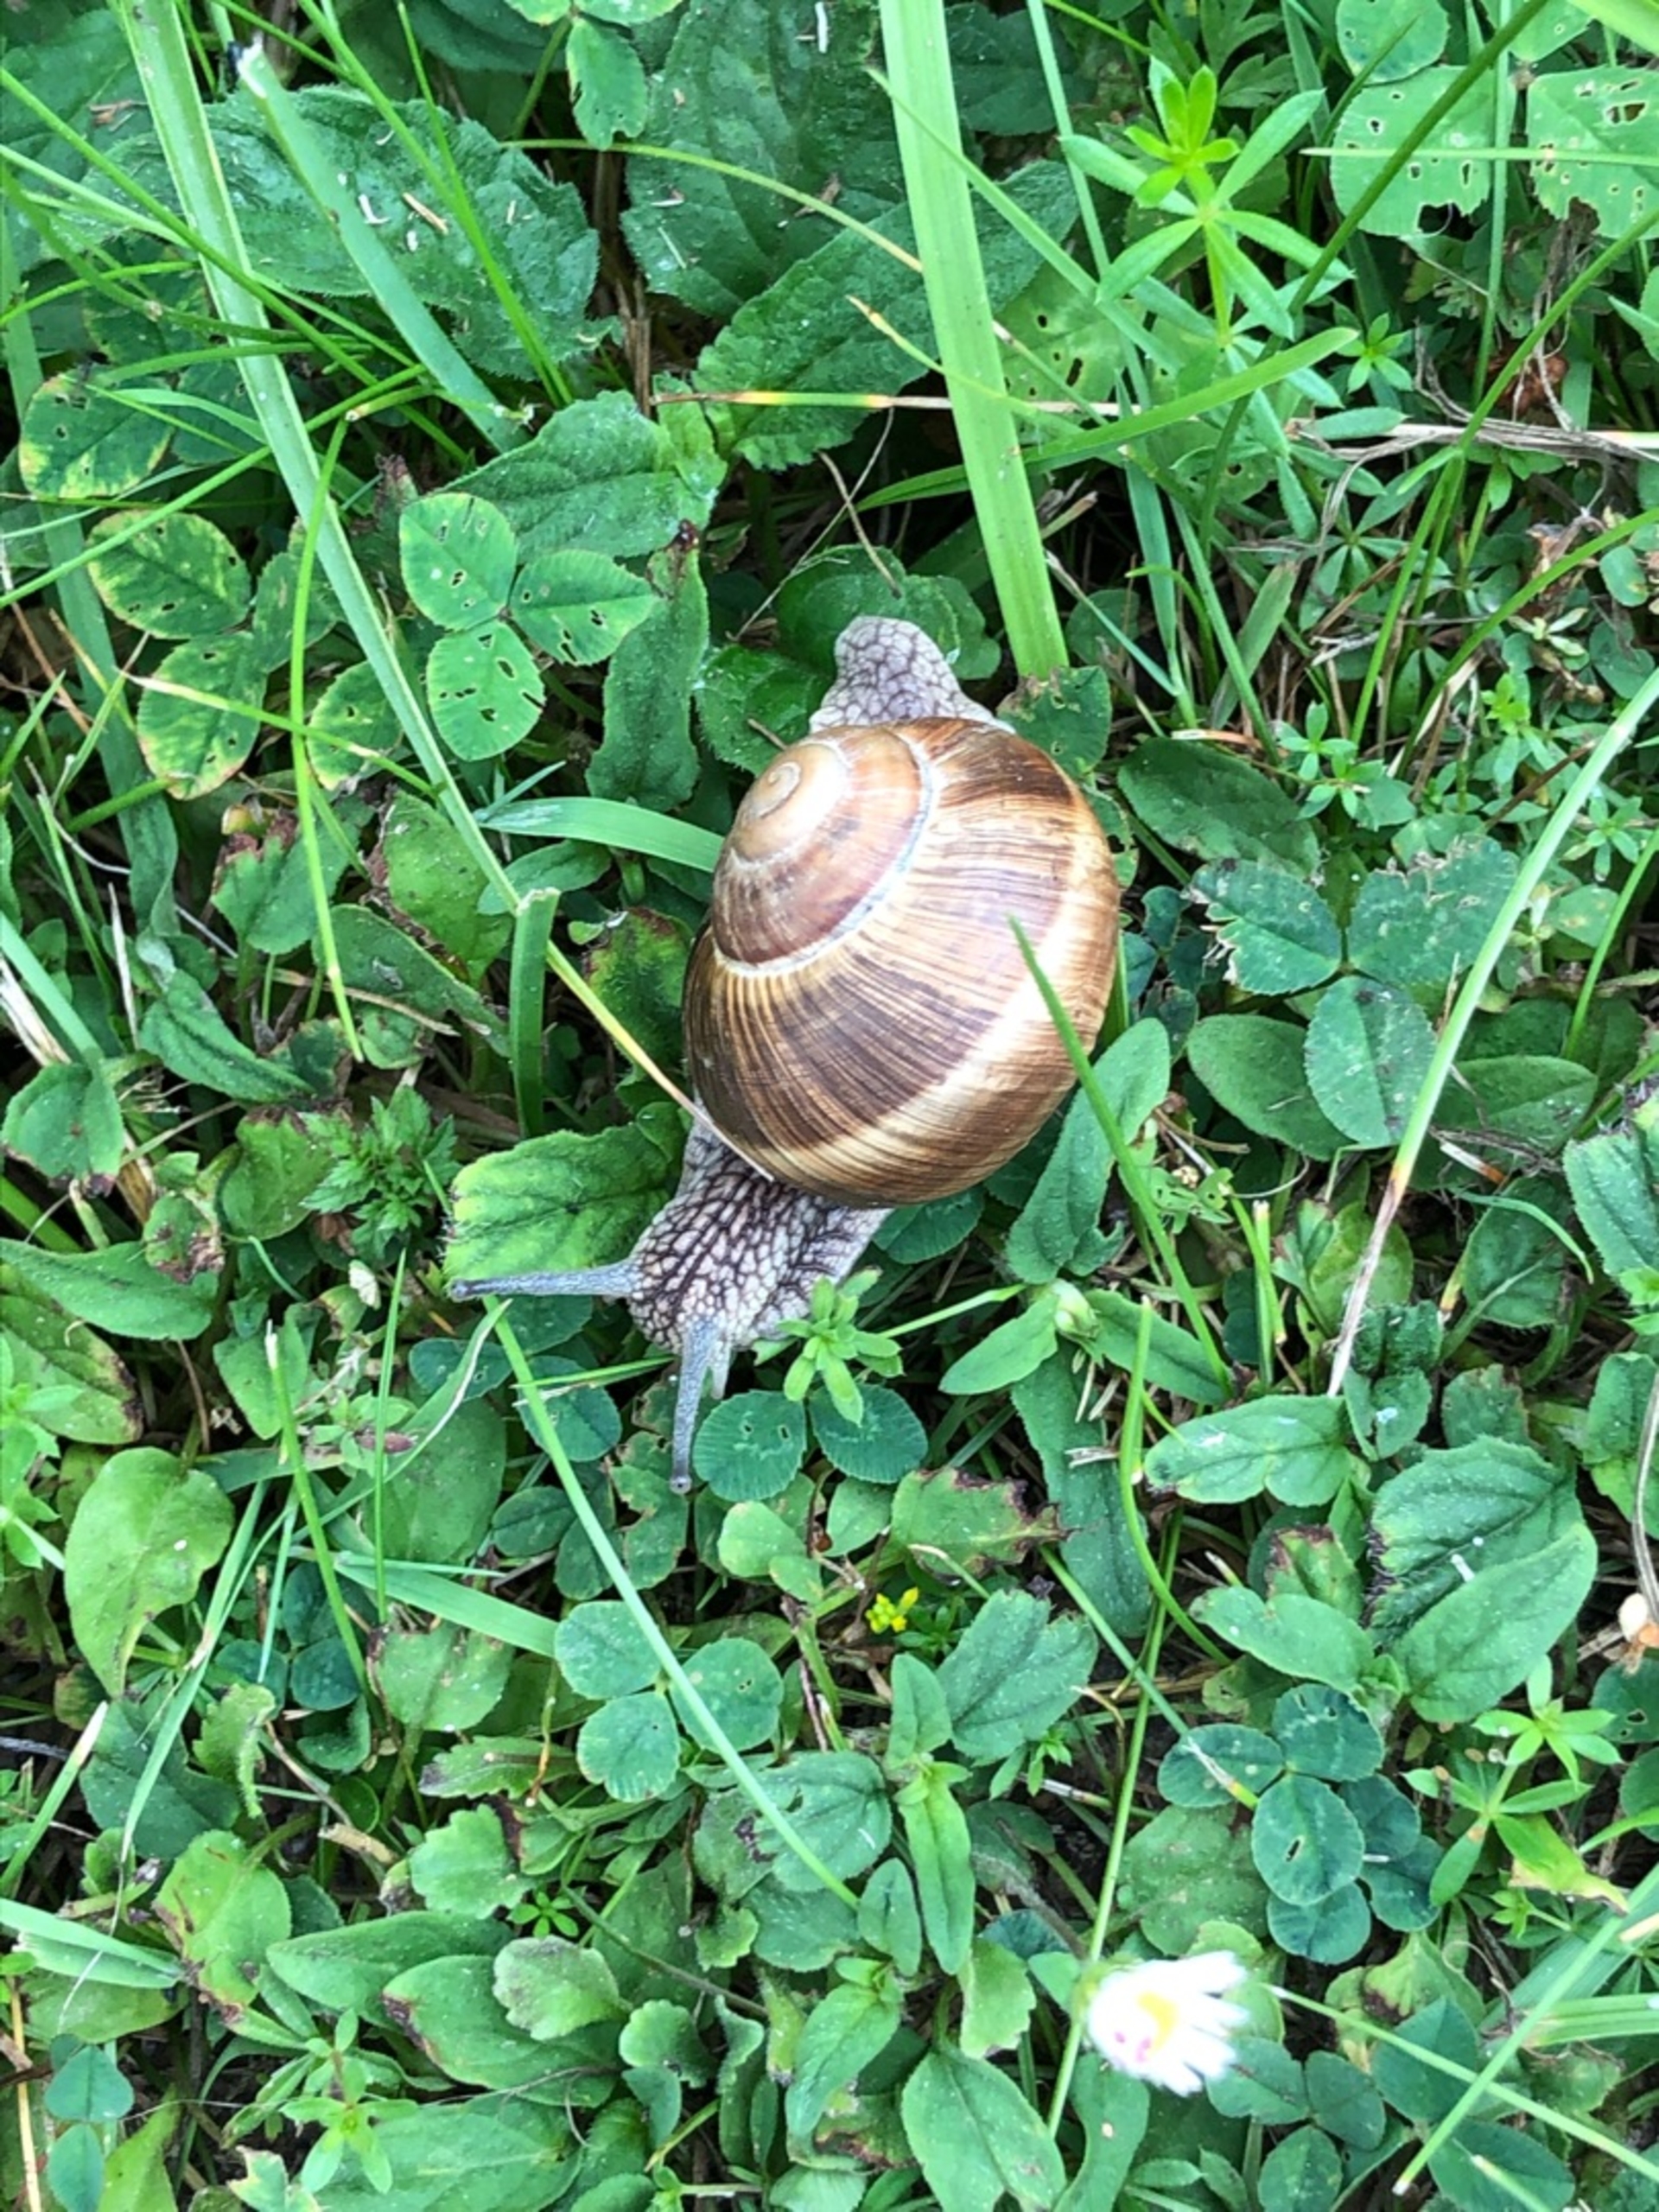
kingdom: Animalia
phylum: Mollusca
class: Gastropoda
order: Stylommatophora
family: Helicidae
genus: Helix
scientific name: Helix pomatia
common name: Vinbjergsnegl
